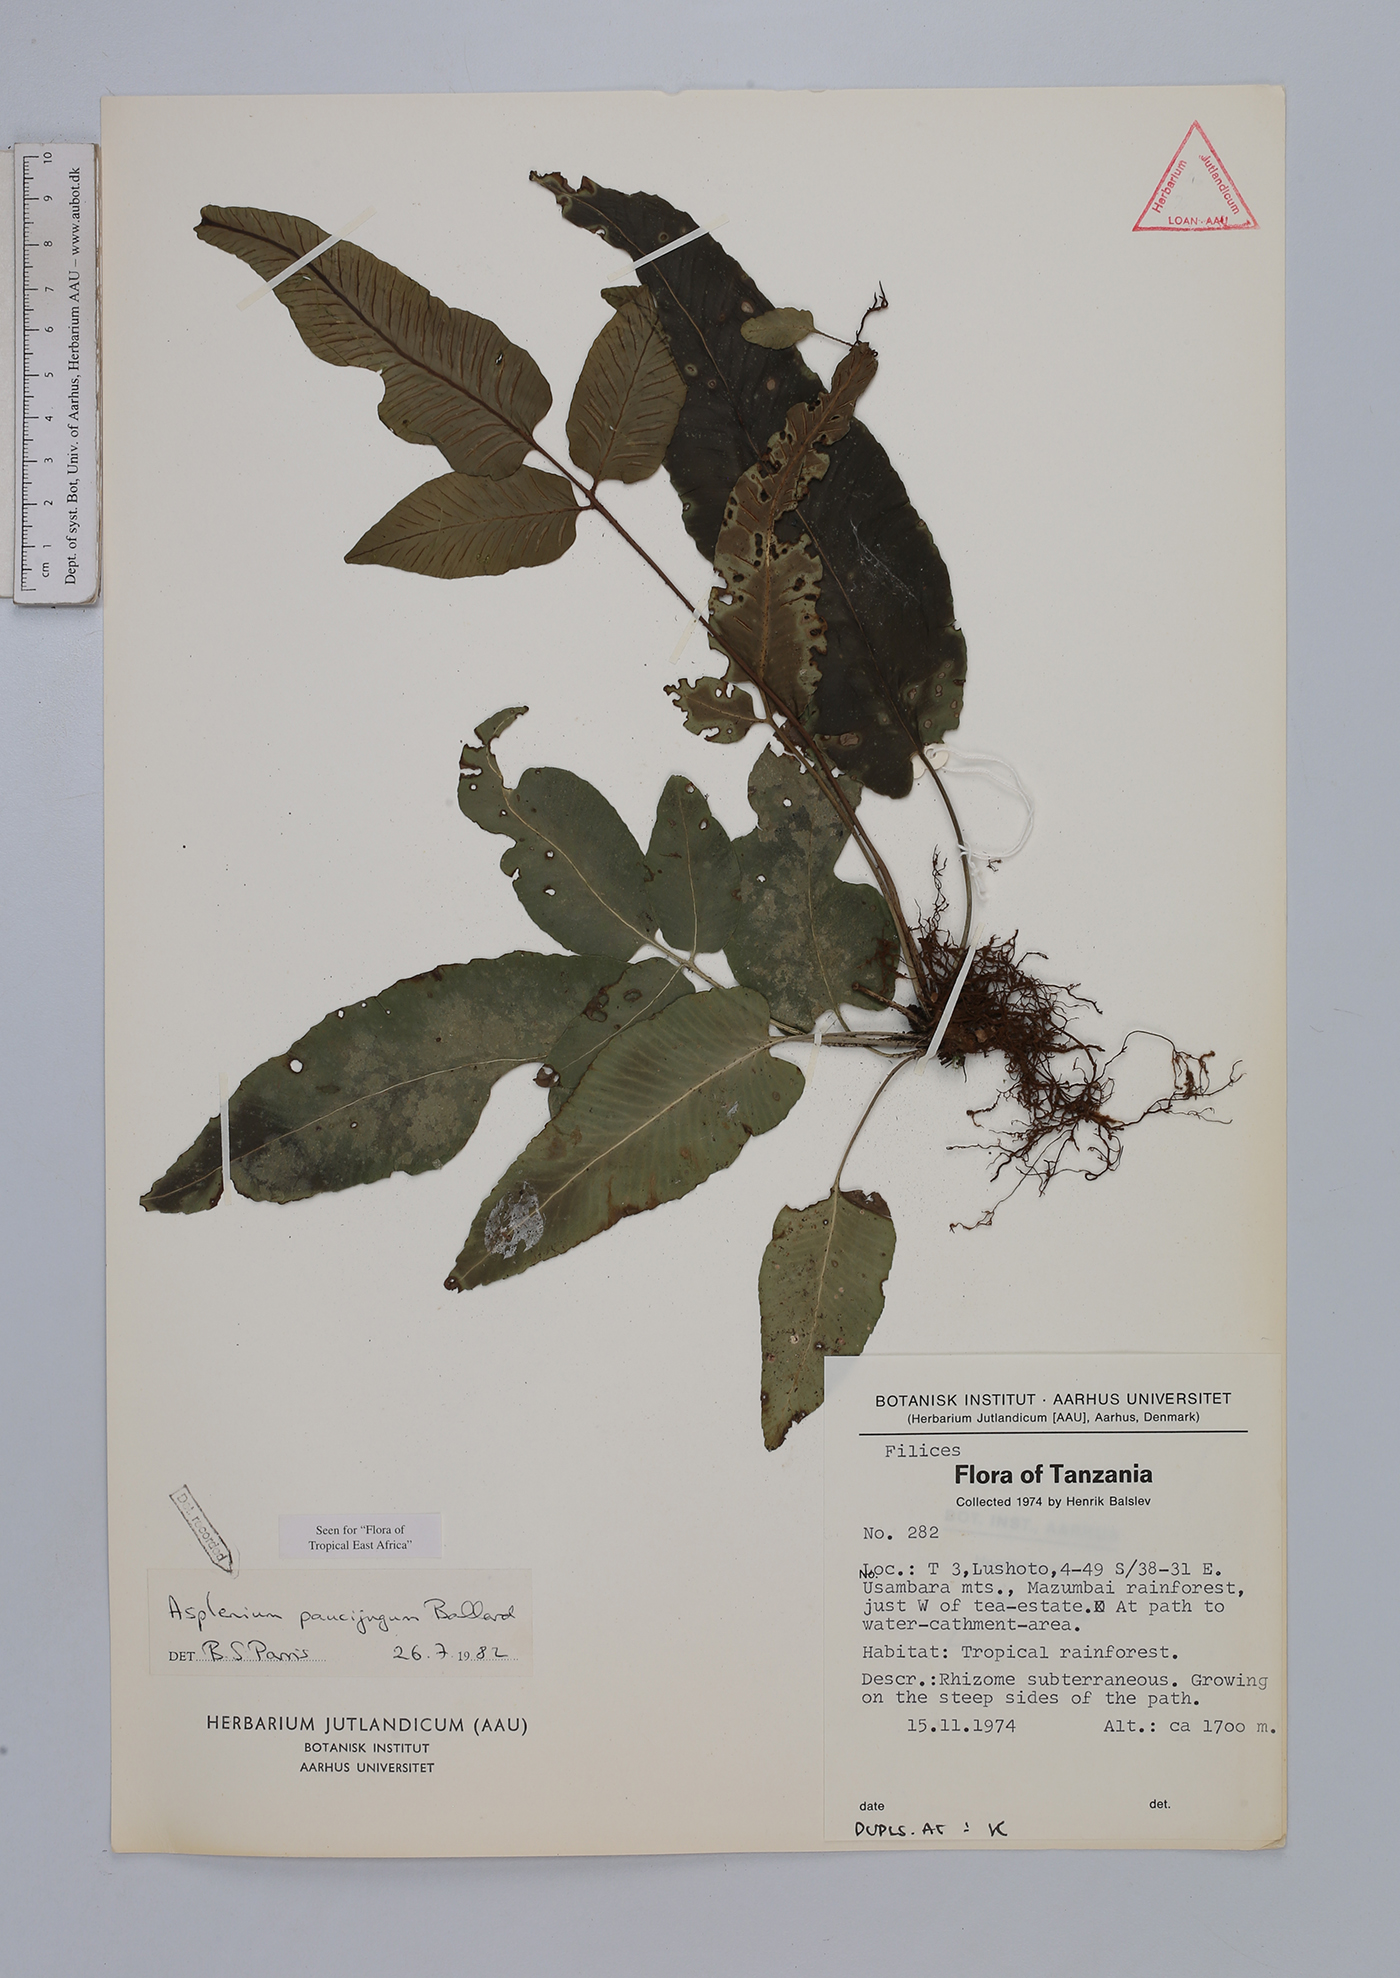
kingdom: Plantae
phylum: Tracheophyta
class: Polypodiopsida
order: Polypodiales
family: Aspleniaceae
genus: Asplenium
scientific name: Asplenium variabile
